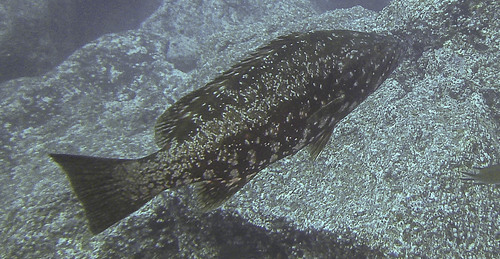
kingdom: Animalia
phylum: Chordata
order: Perciformes
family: Serranidae
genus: Mycteroperca
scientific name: Mycteroperca fusca
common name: Island grouper
